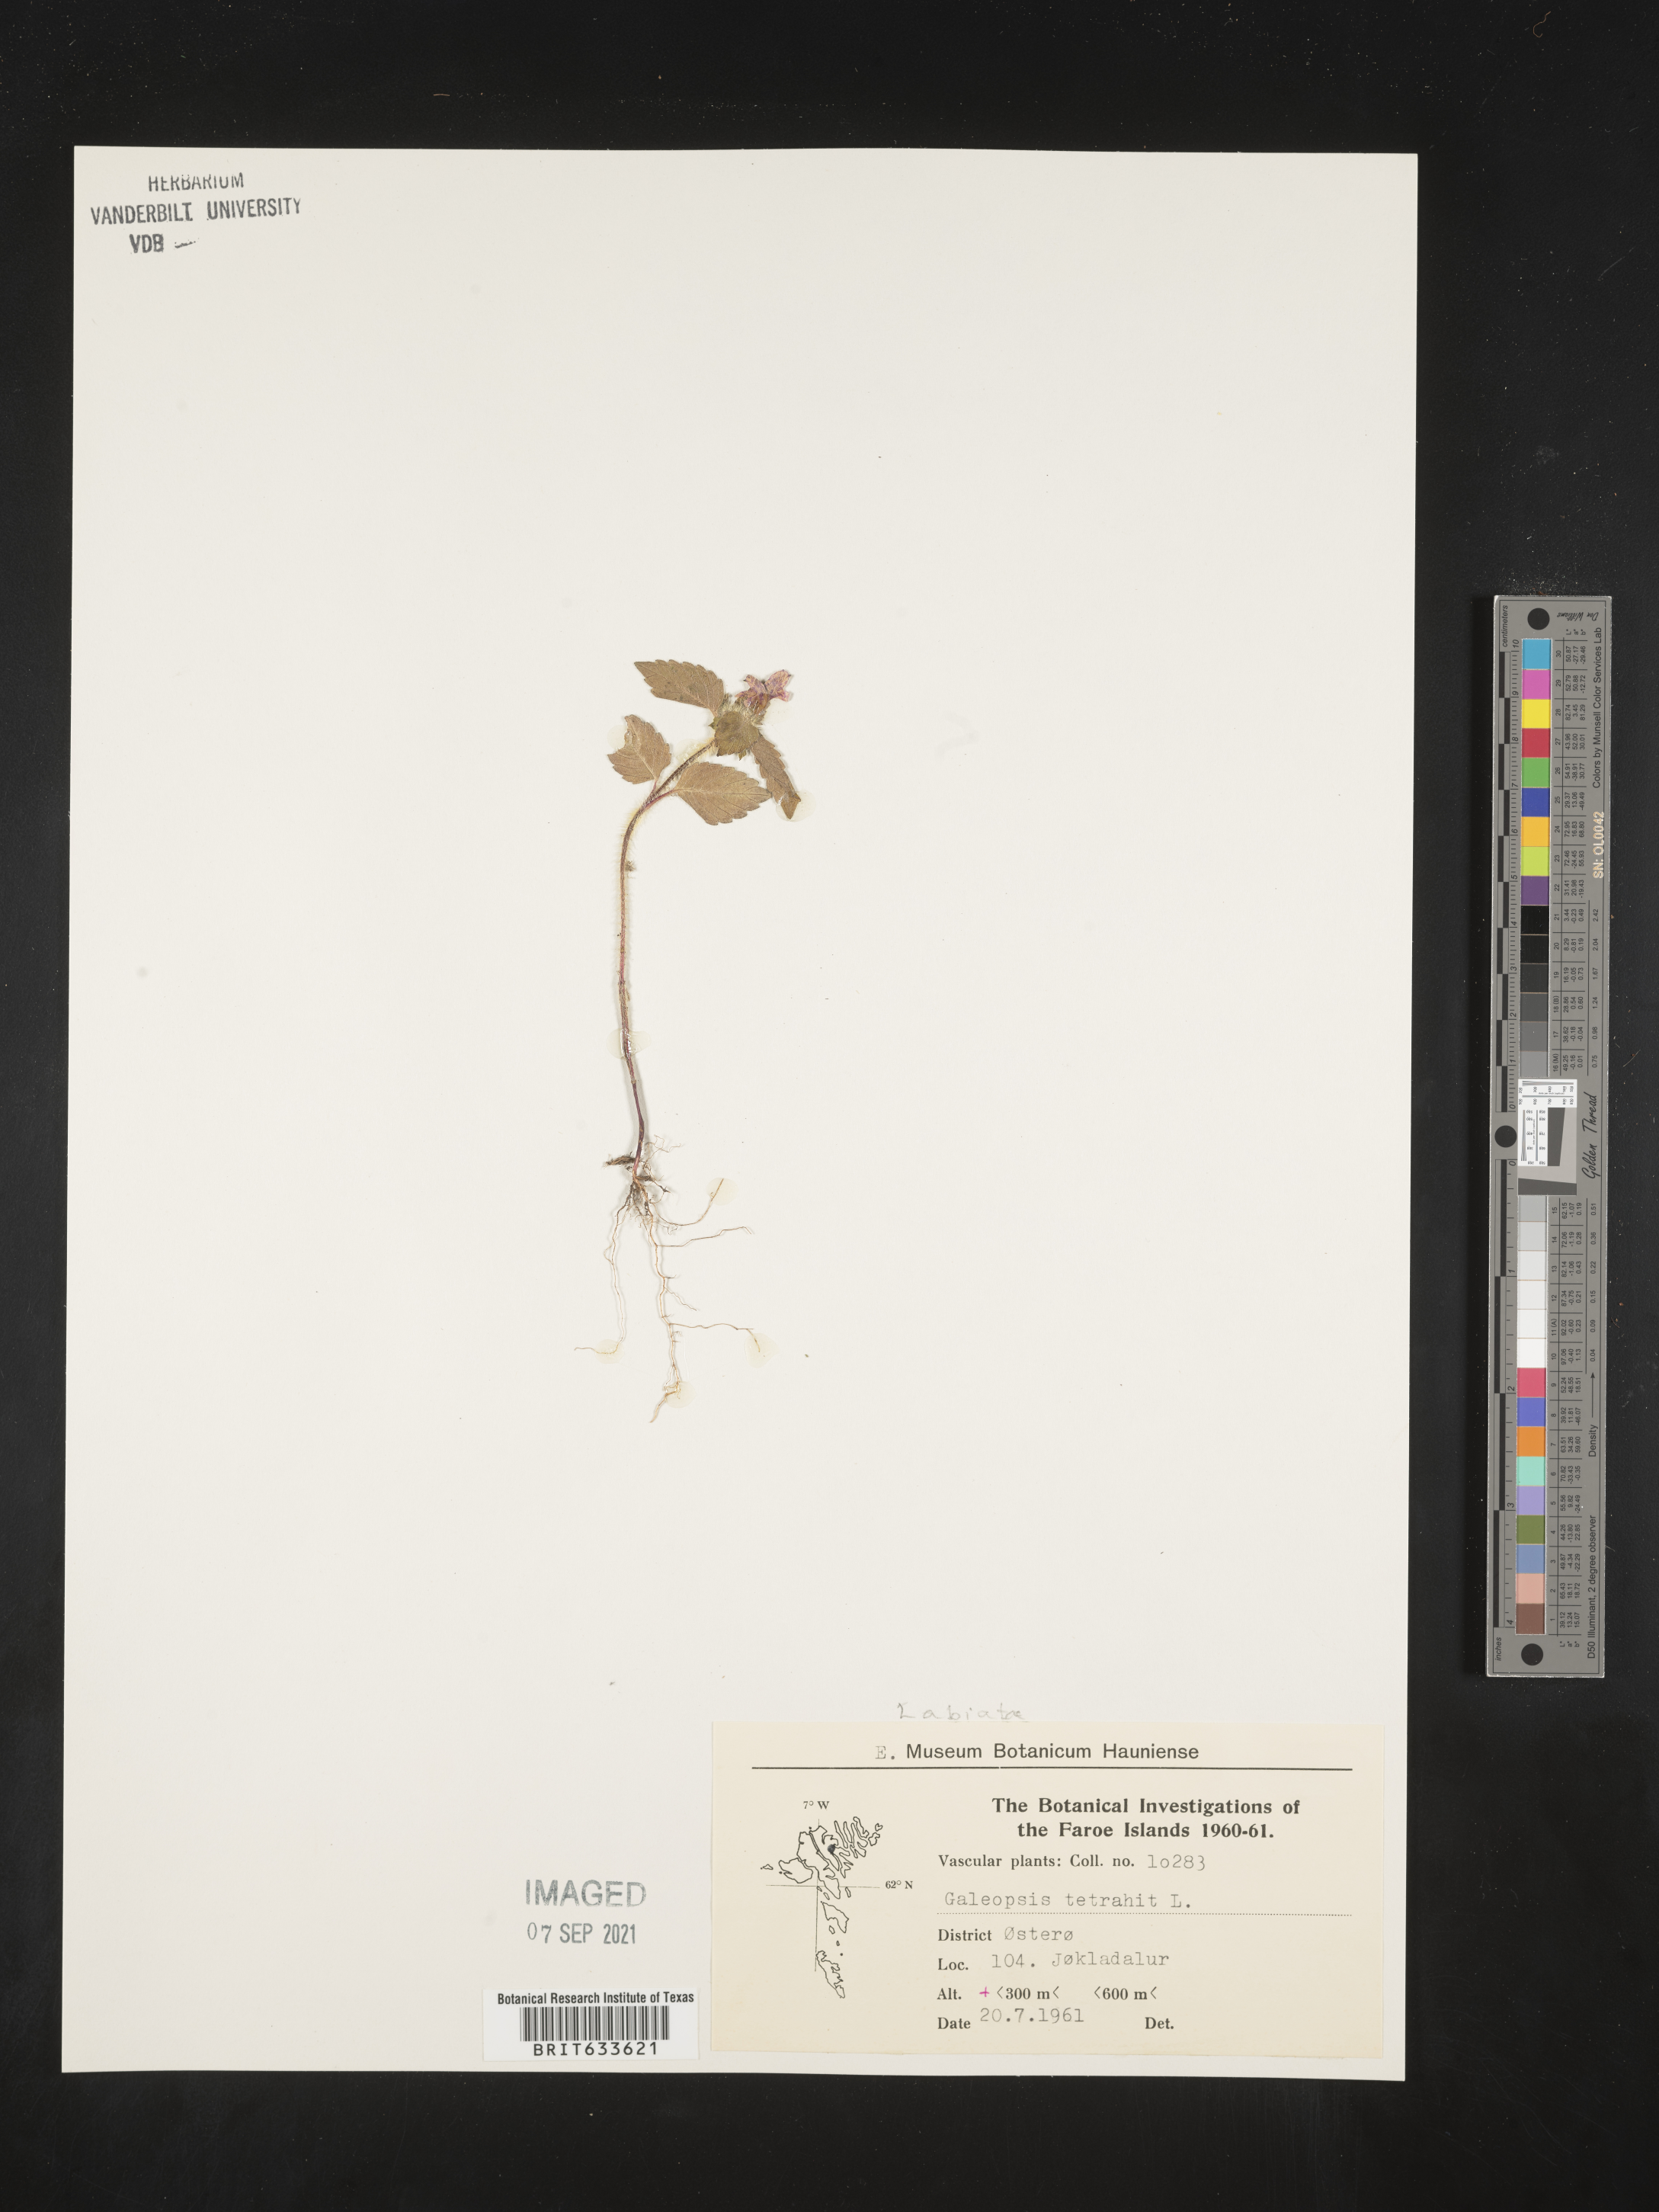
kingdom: Plantae
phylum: Tracheophyta
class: Magnoliopsida
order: Lamiales
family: Lamiaceae
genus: Galeopsis
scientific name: Galeopsis
